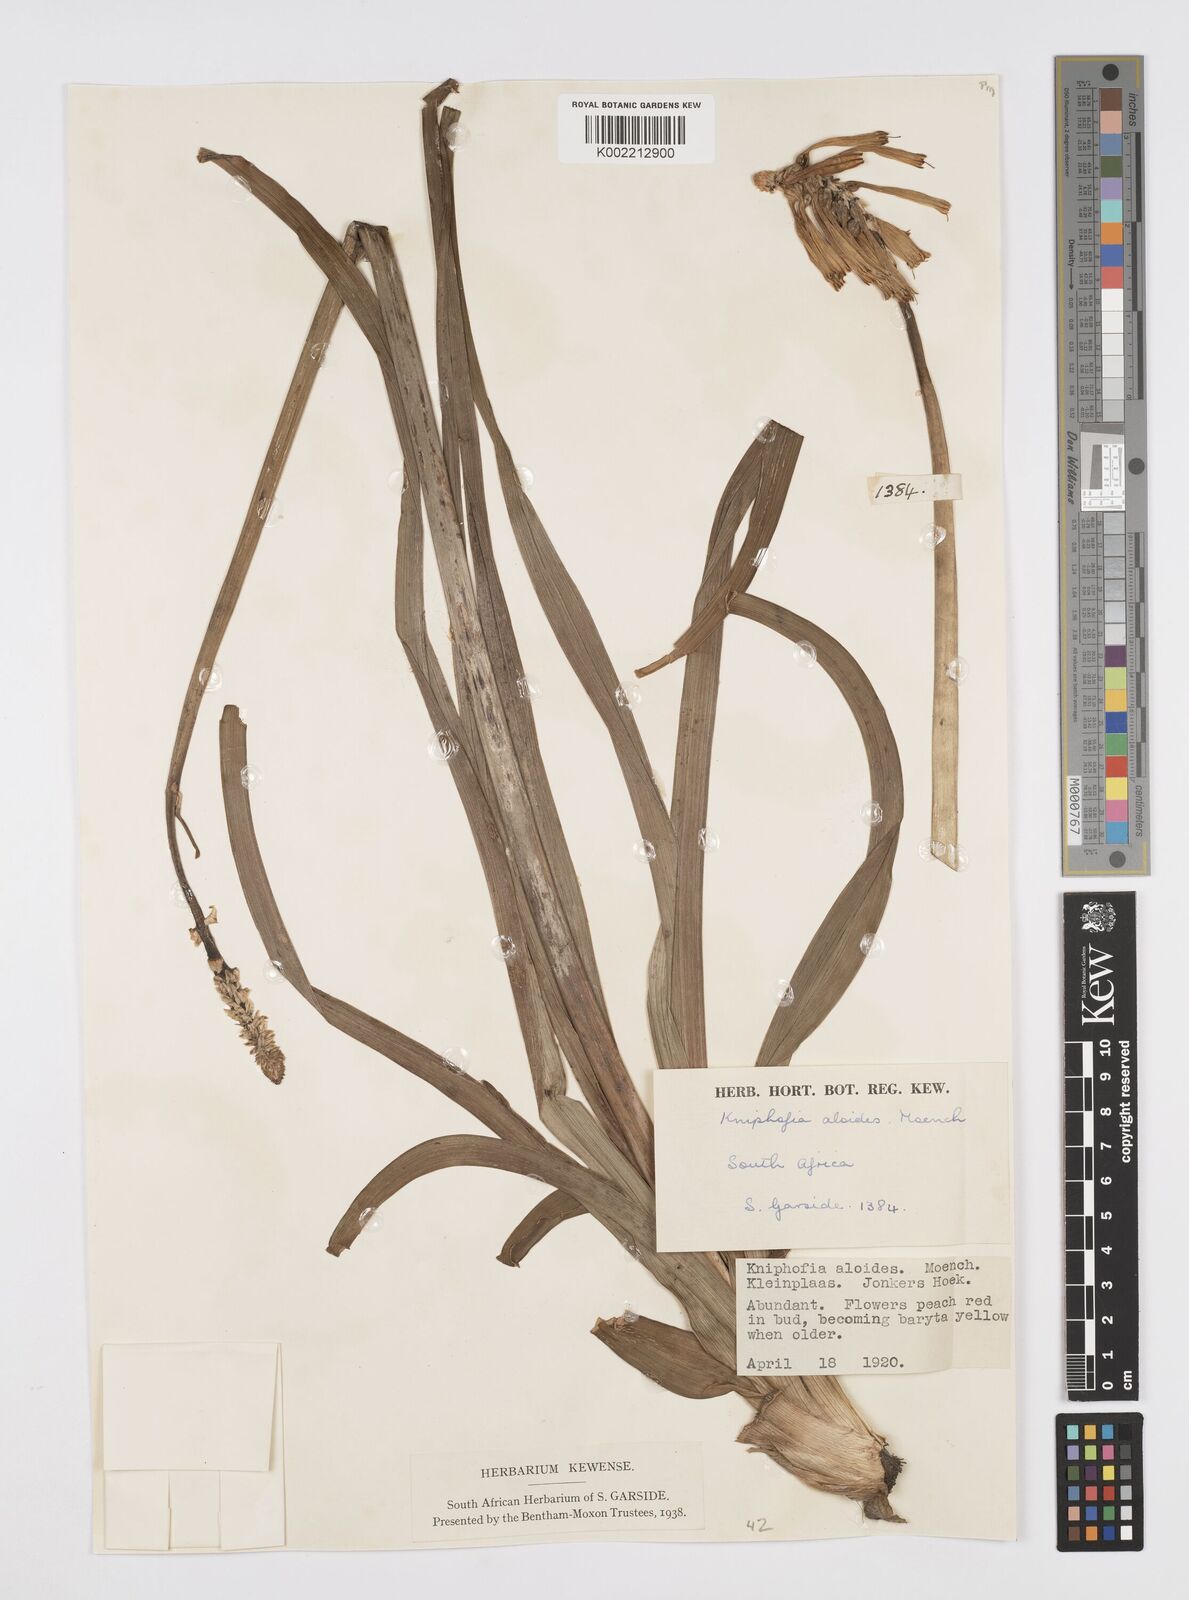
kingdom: Plantae
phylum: Tracheophyta
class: Liliopsida
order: Asparagales
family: Asphodelaceae
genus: Kniphofia
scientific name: Kniphofia uvaria
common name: Red-hot-poker
